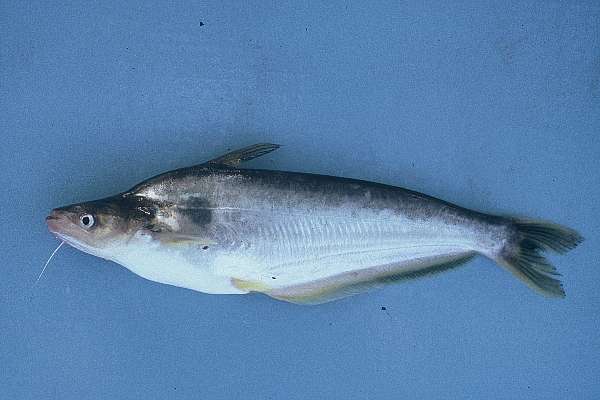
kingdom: Animalia
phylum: Chordata
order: Siluriformes
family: Schilbeidae
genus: Schilbe
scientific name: Schilbe intermedius
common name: Silver catfish
